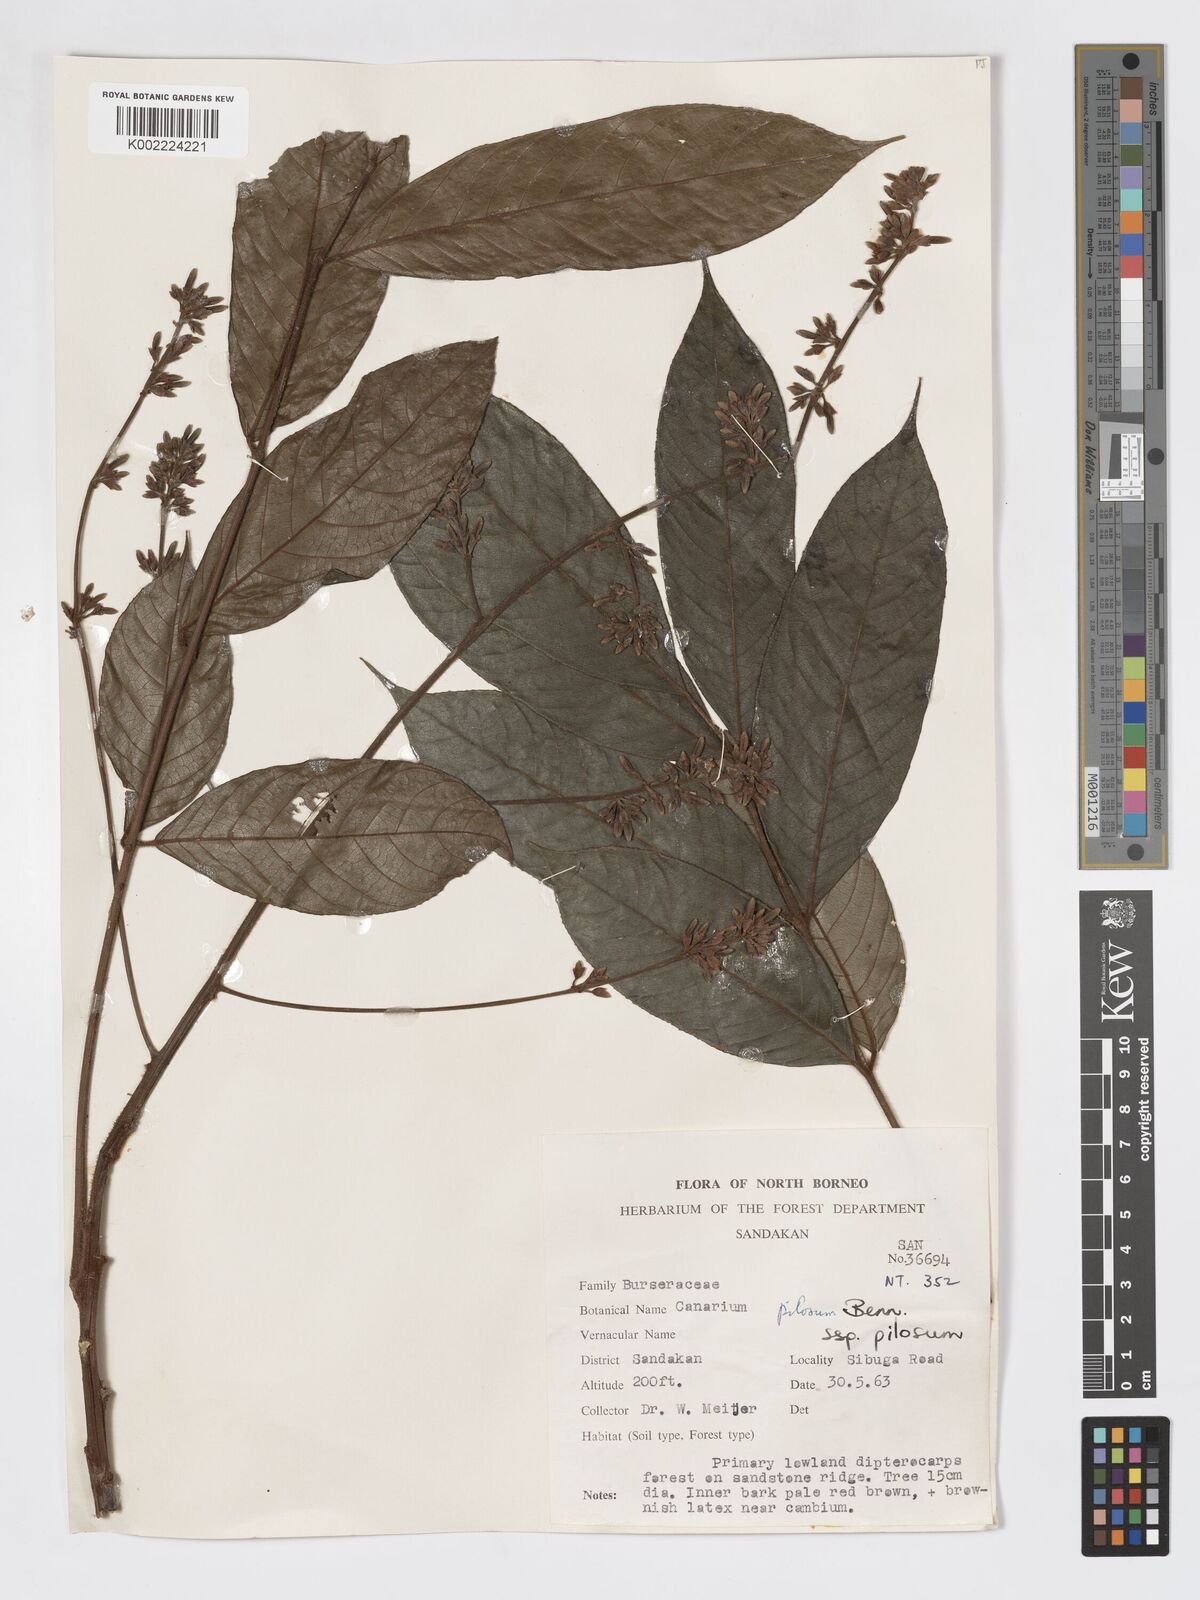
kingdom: Plantae
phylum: Tracheophyta
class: Magnoliopsida
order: Sapindales
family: Burseraceae
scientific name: Burseraceae
